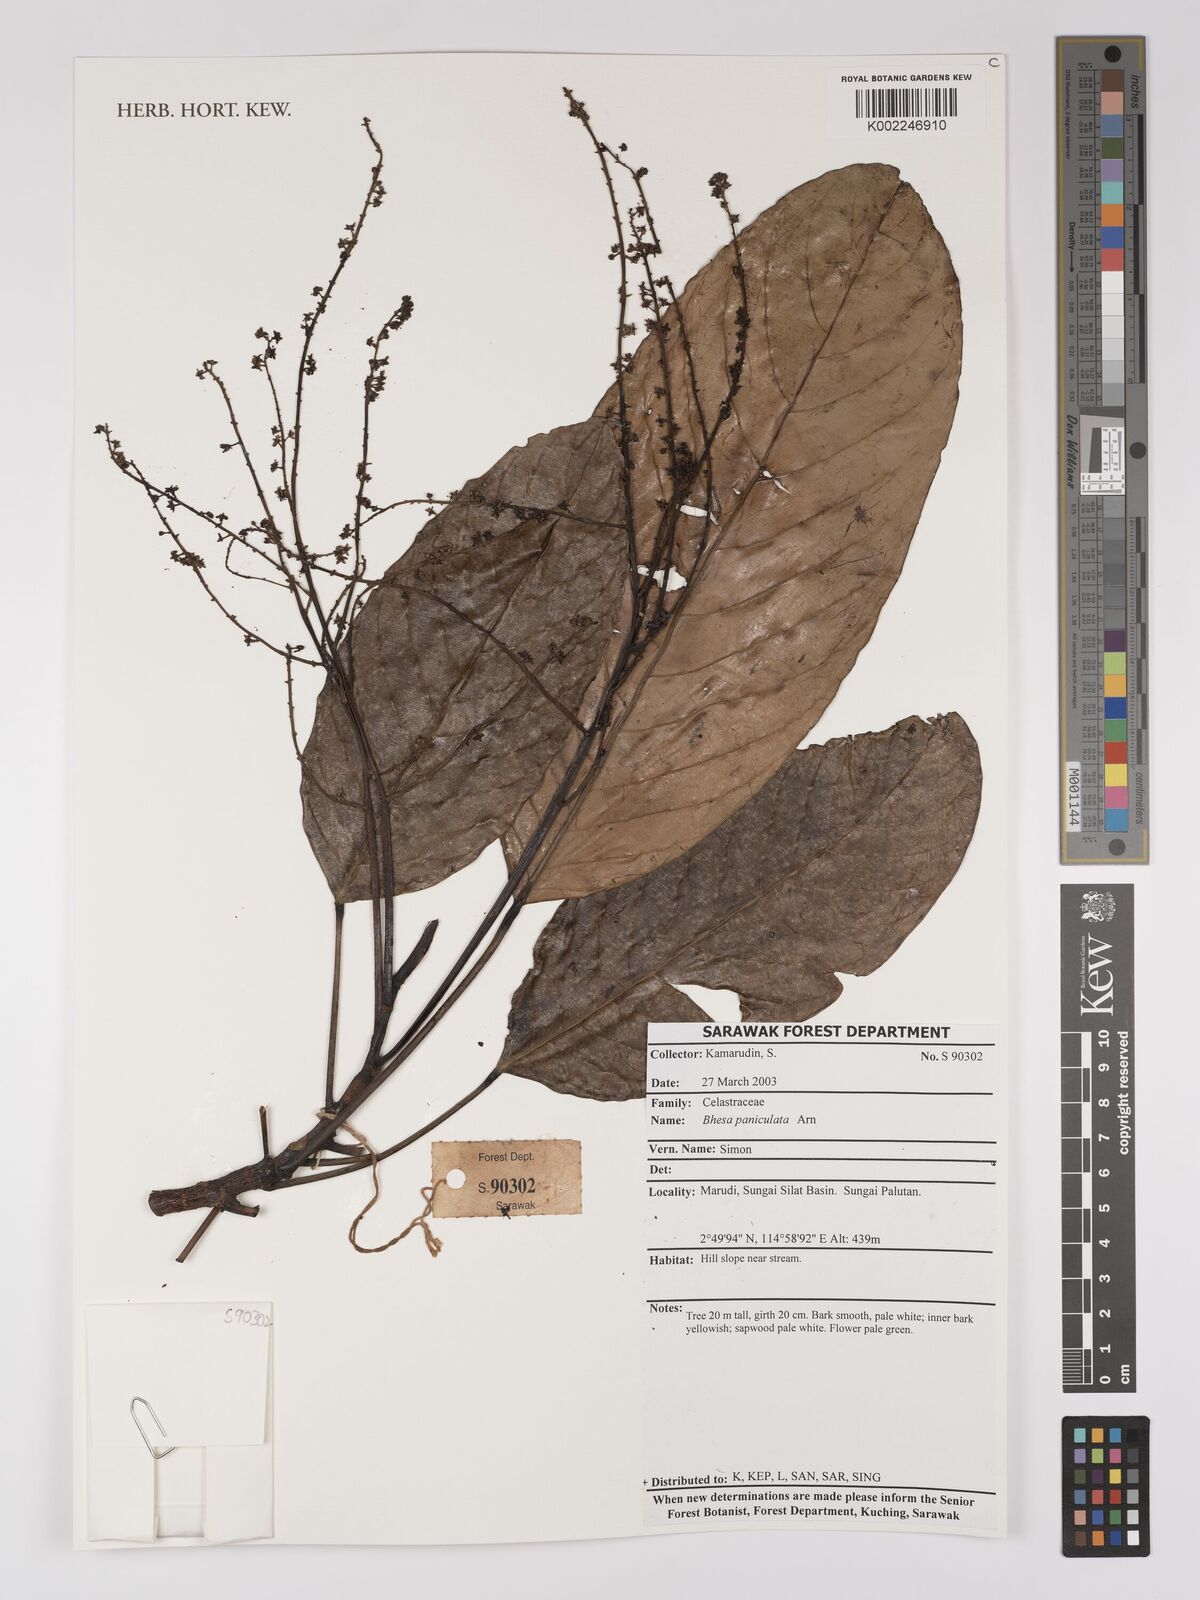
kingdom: Plantae
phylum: Tracheophyta
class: Magnoliopsida
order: Malpighiales
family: Centroplacaceae
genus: Bhesa
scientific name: Bhesa paniculata
